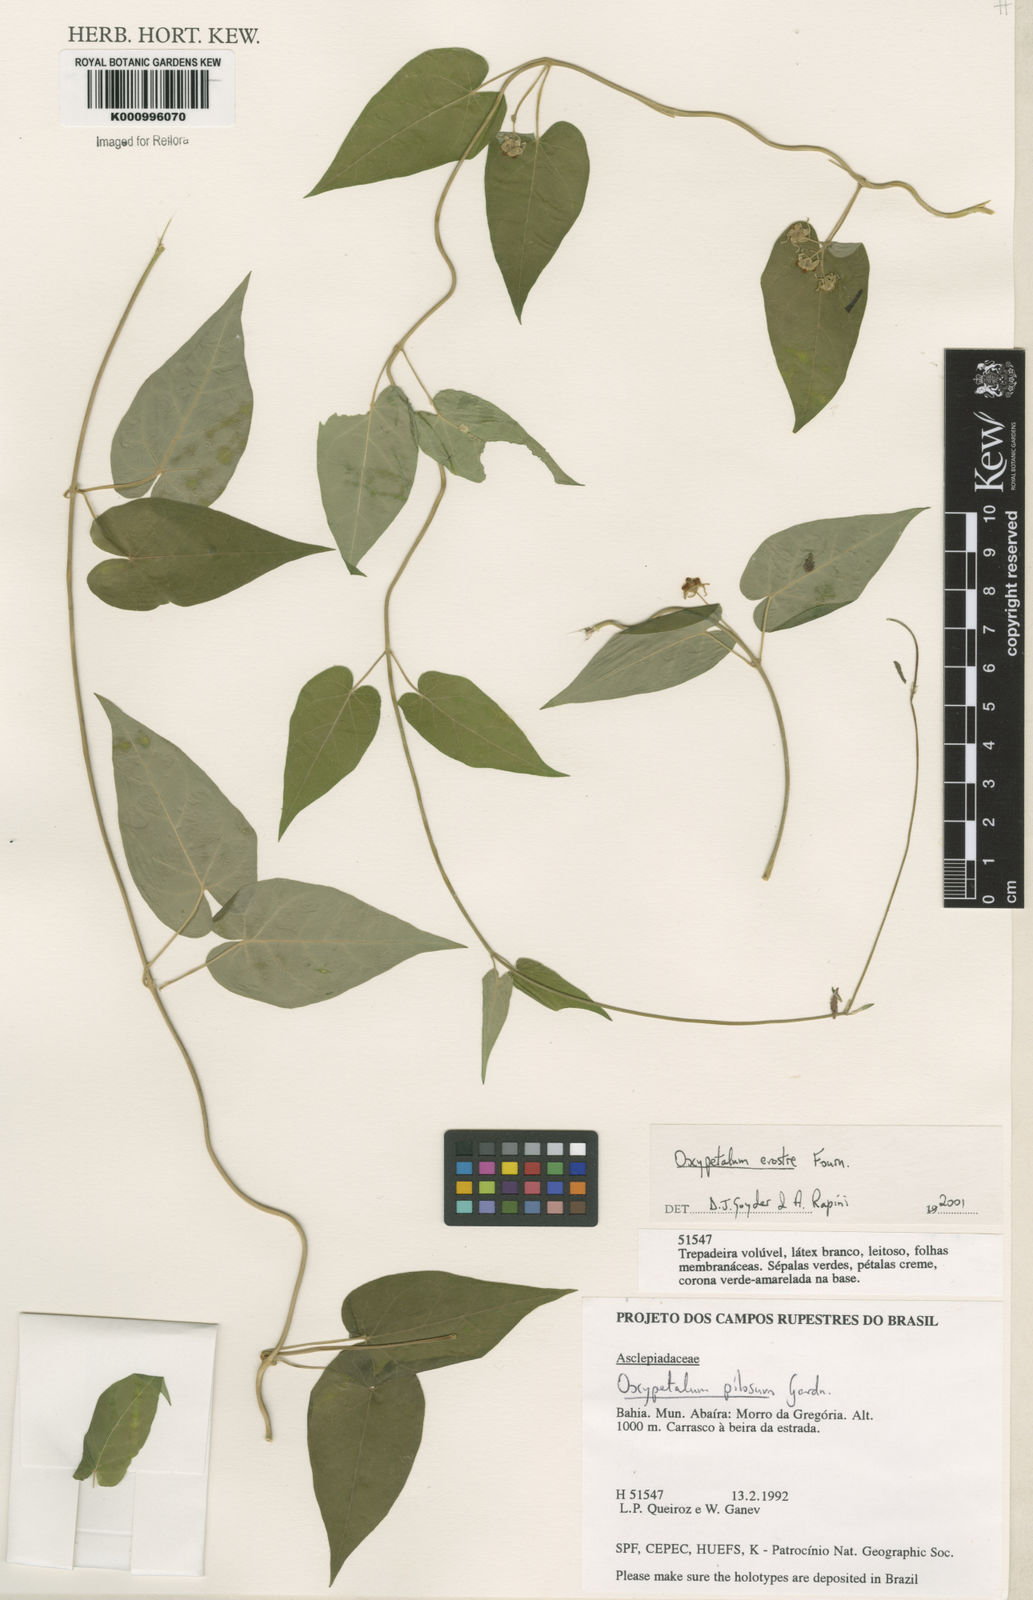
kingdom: Plantae
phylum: Tracheophyta
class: Magnoliopsida
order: Gentianales
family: Apocynaceae
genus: Oxypetalum
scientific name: Oxypetalum erostre
